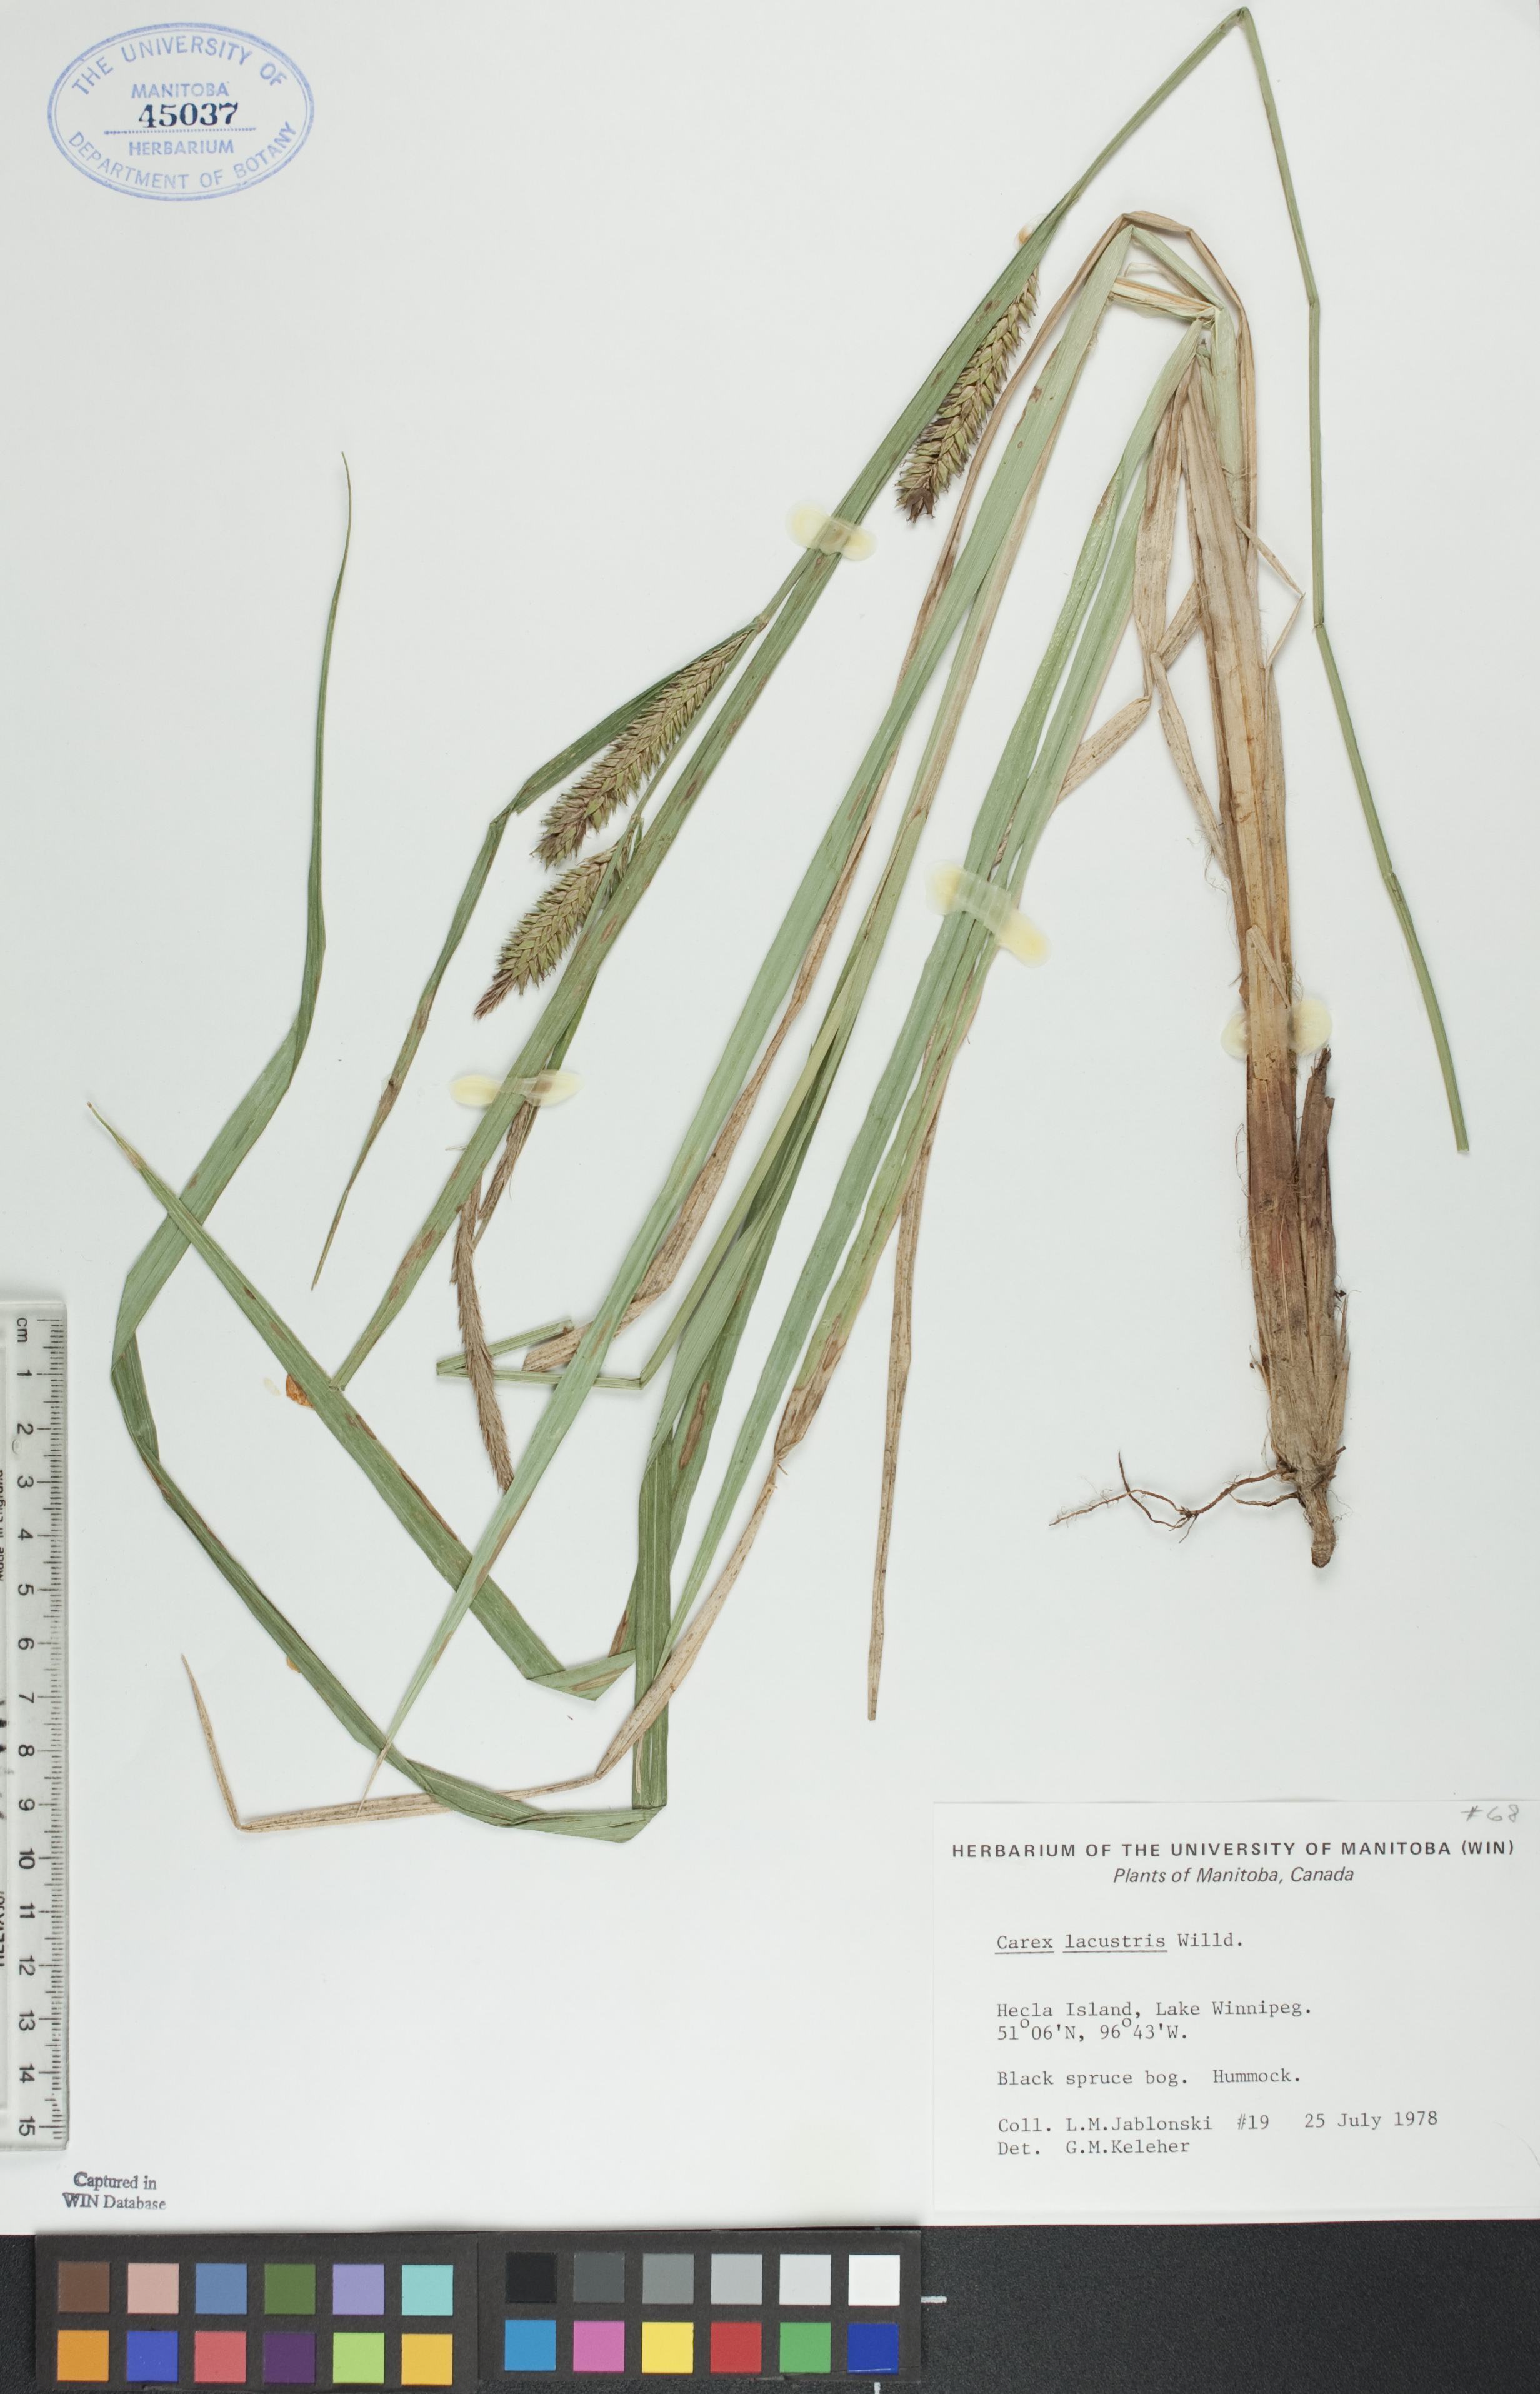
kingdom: Plantae
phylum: Tracheophyta
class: Liliopsida
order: Poales
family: Cyperaceae
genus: Carex
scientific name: Carex lacustris
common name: Common lake sedge
